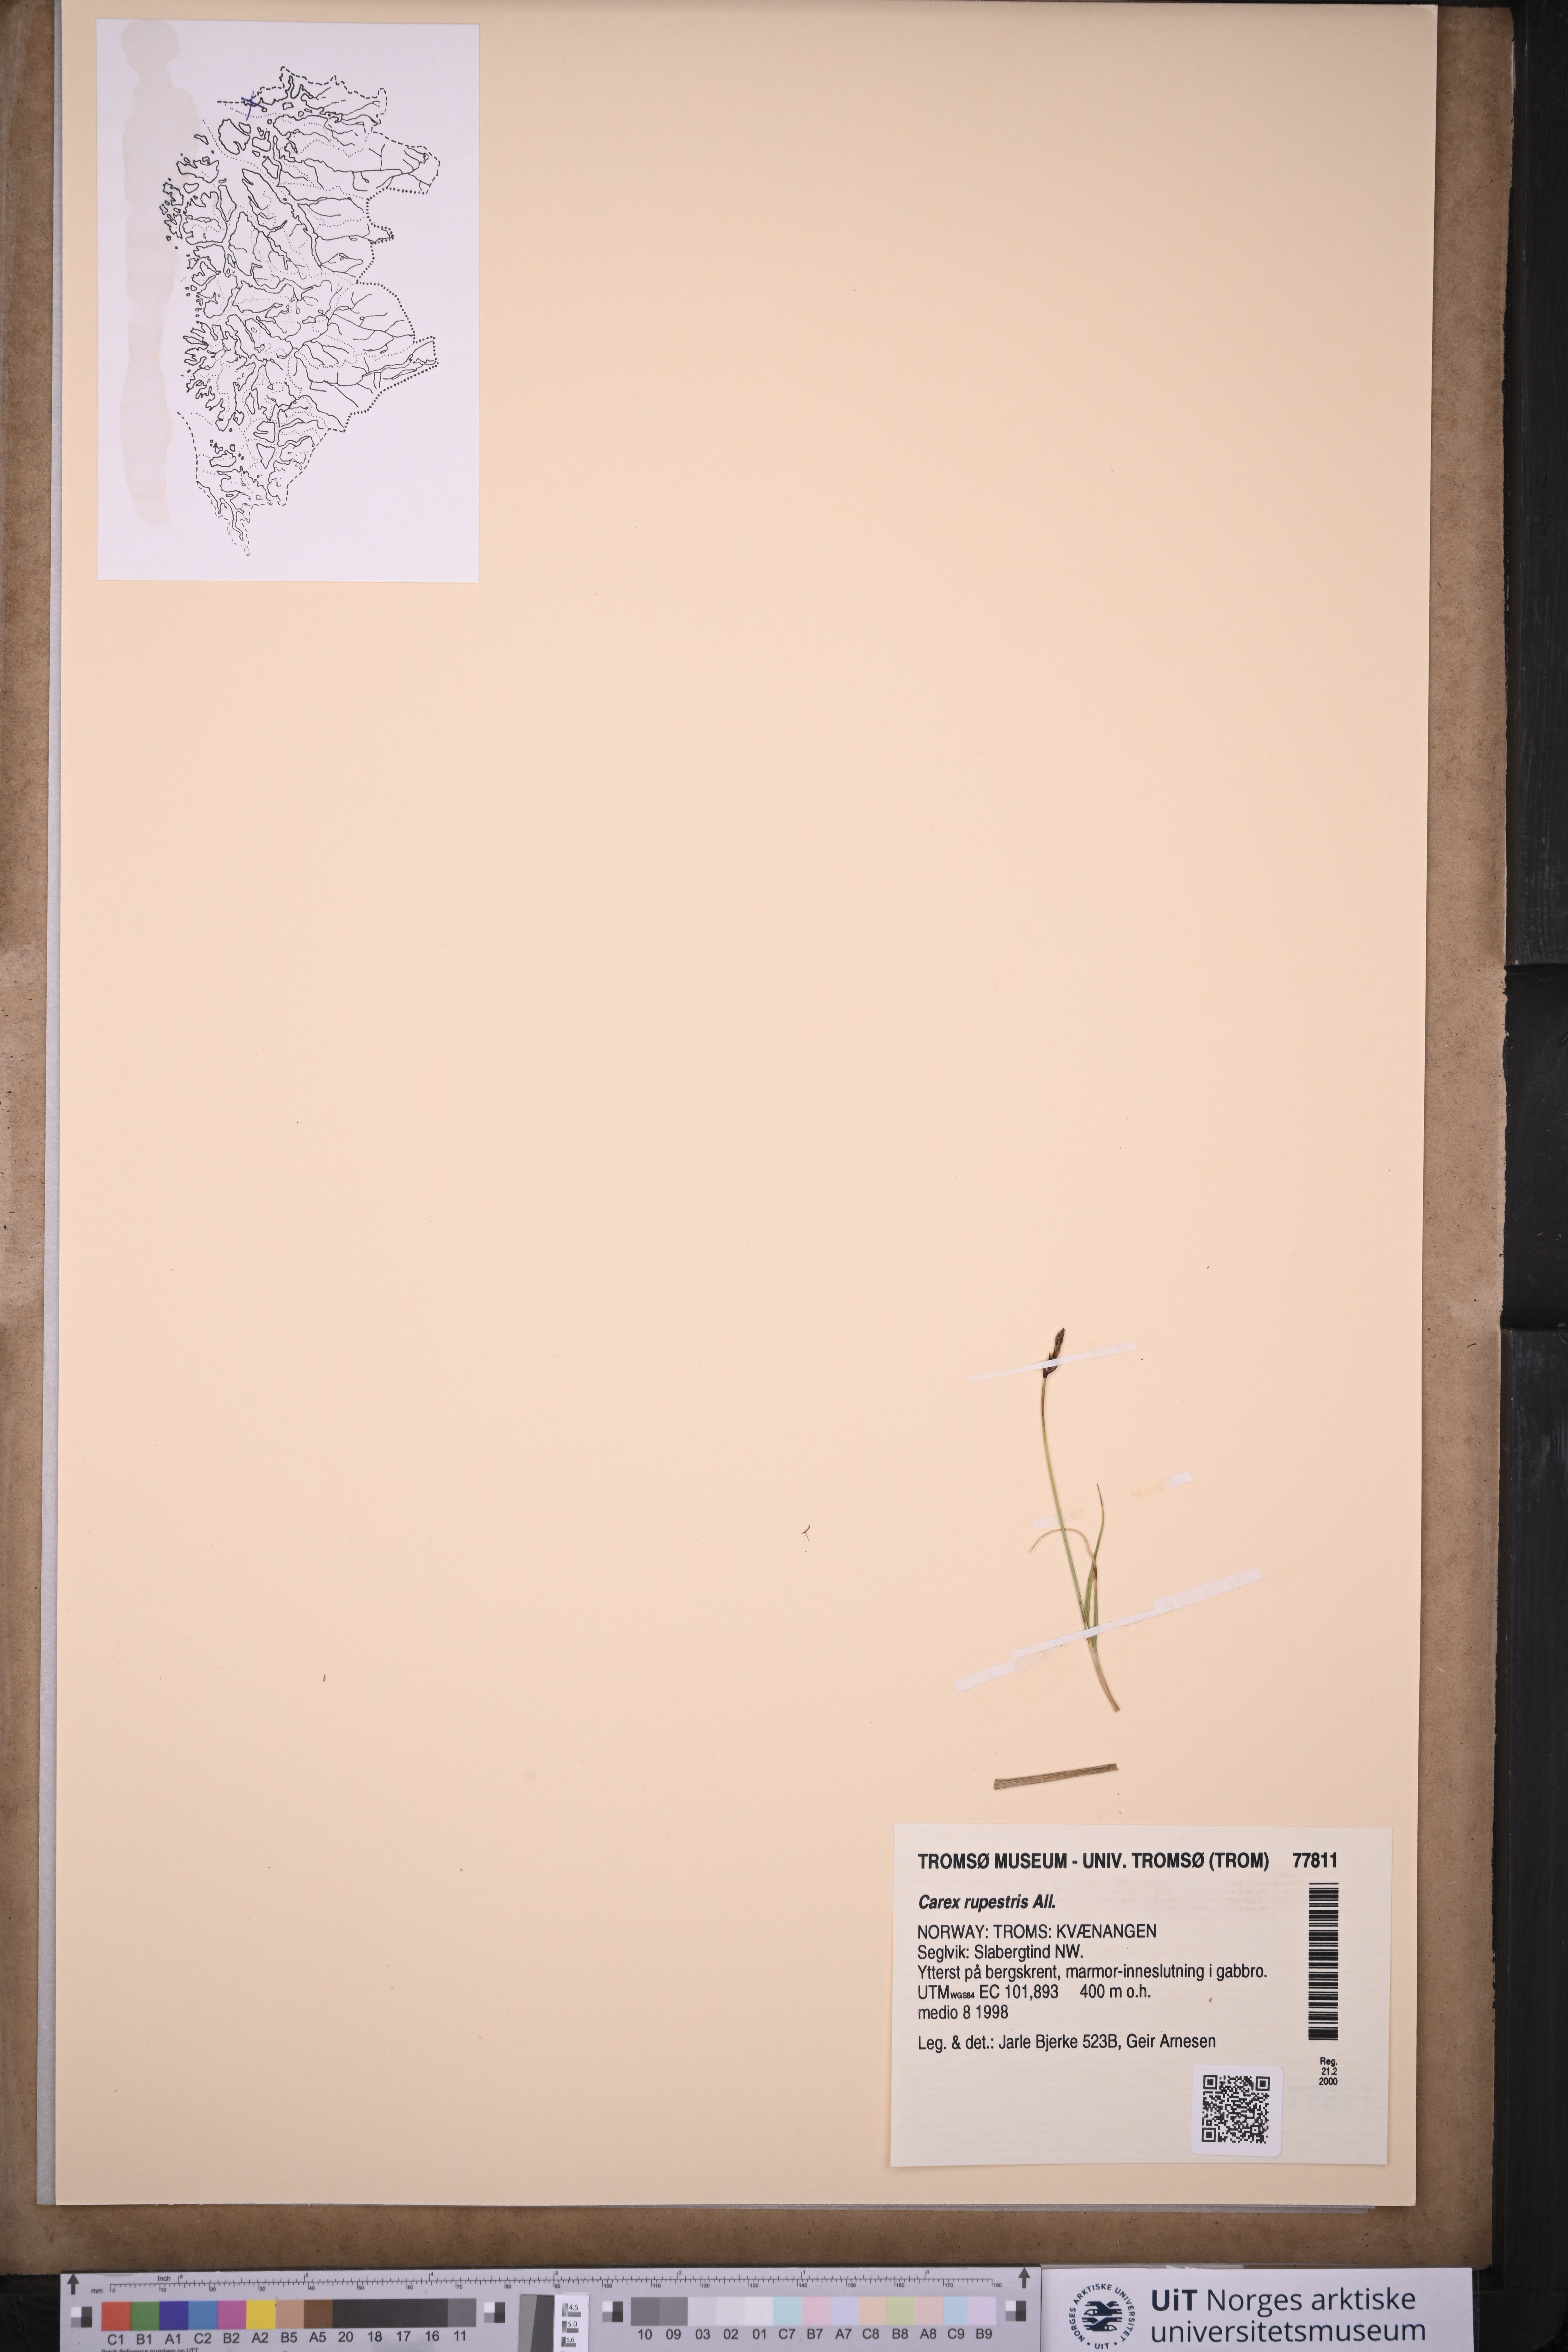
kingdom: Plantae
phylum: Tracheophyta
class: Liliopsida
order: Poales
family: Cyperaceae
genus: Carex
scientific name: Carex rupestris
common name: Rock sedge
